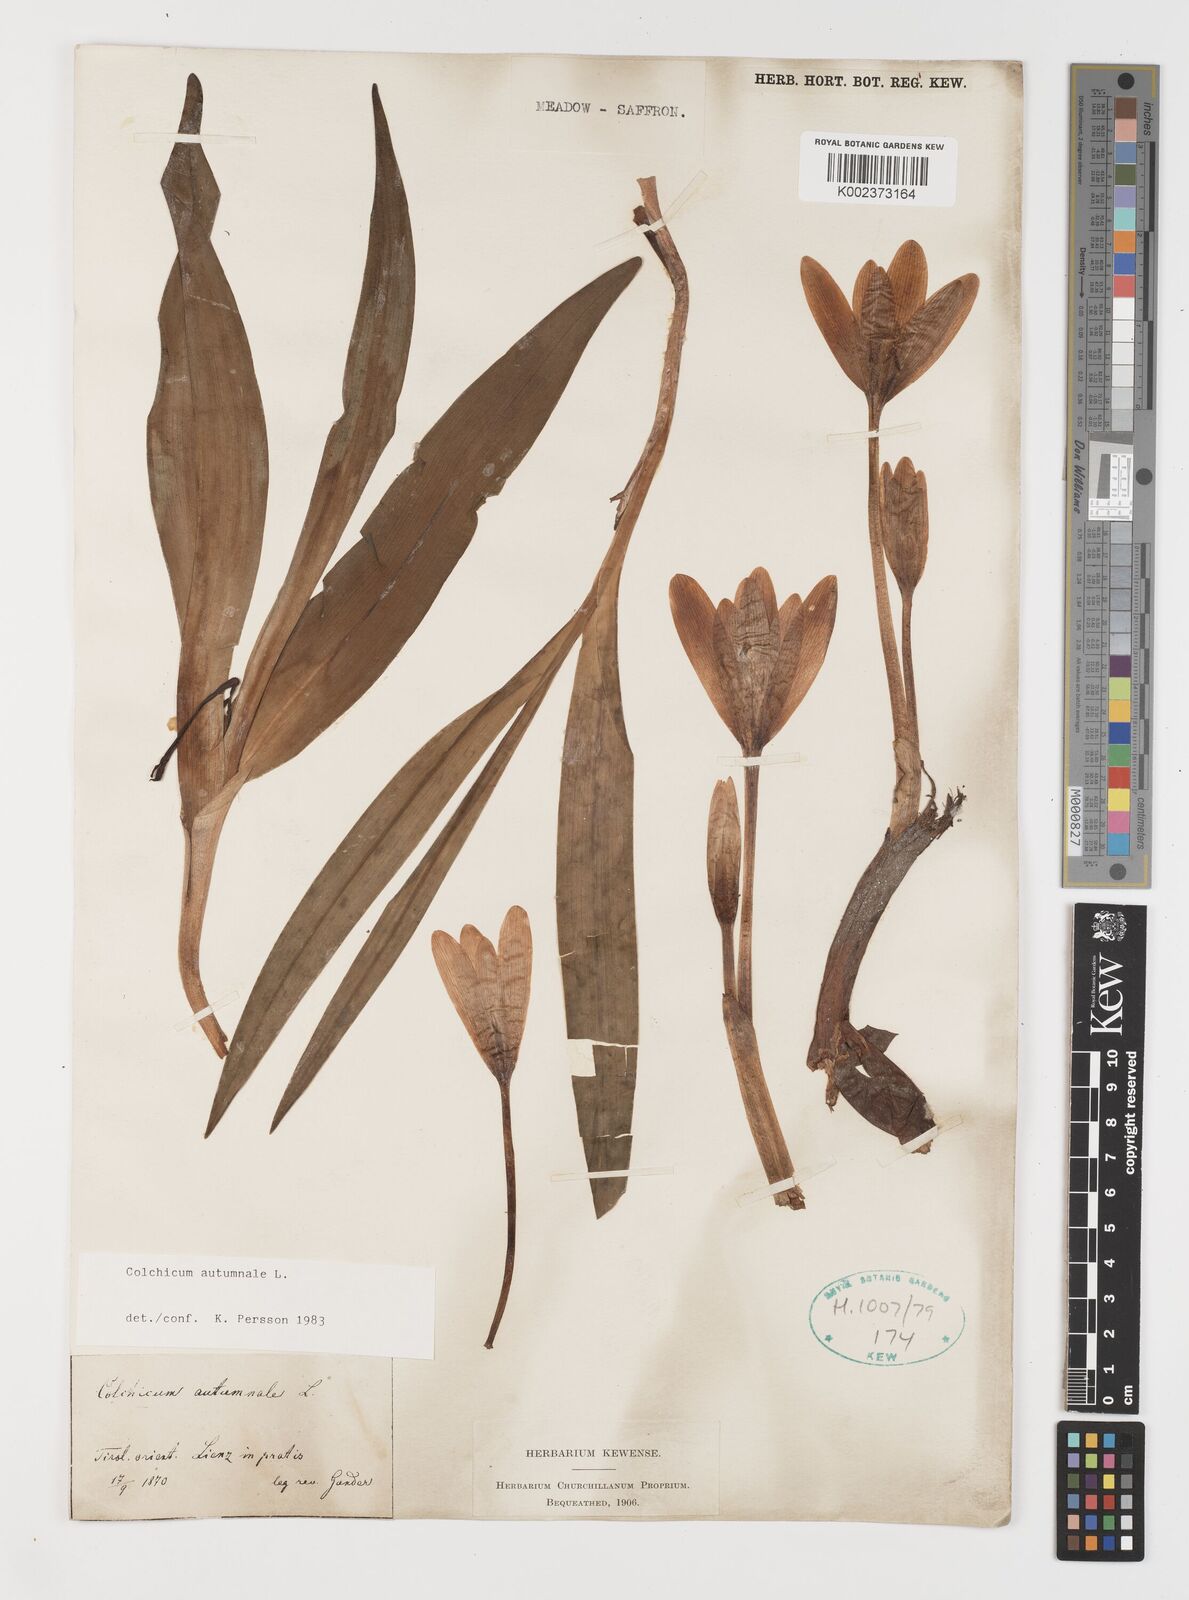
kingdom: Plantae
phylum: Tracheophyta
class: Liliopsida
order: Liliales
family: Colchicaceae
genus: Colchicum
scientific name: Colchicum autumnale
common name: Autumn crocus
